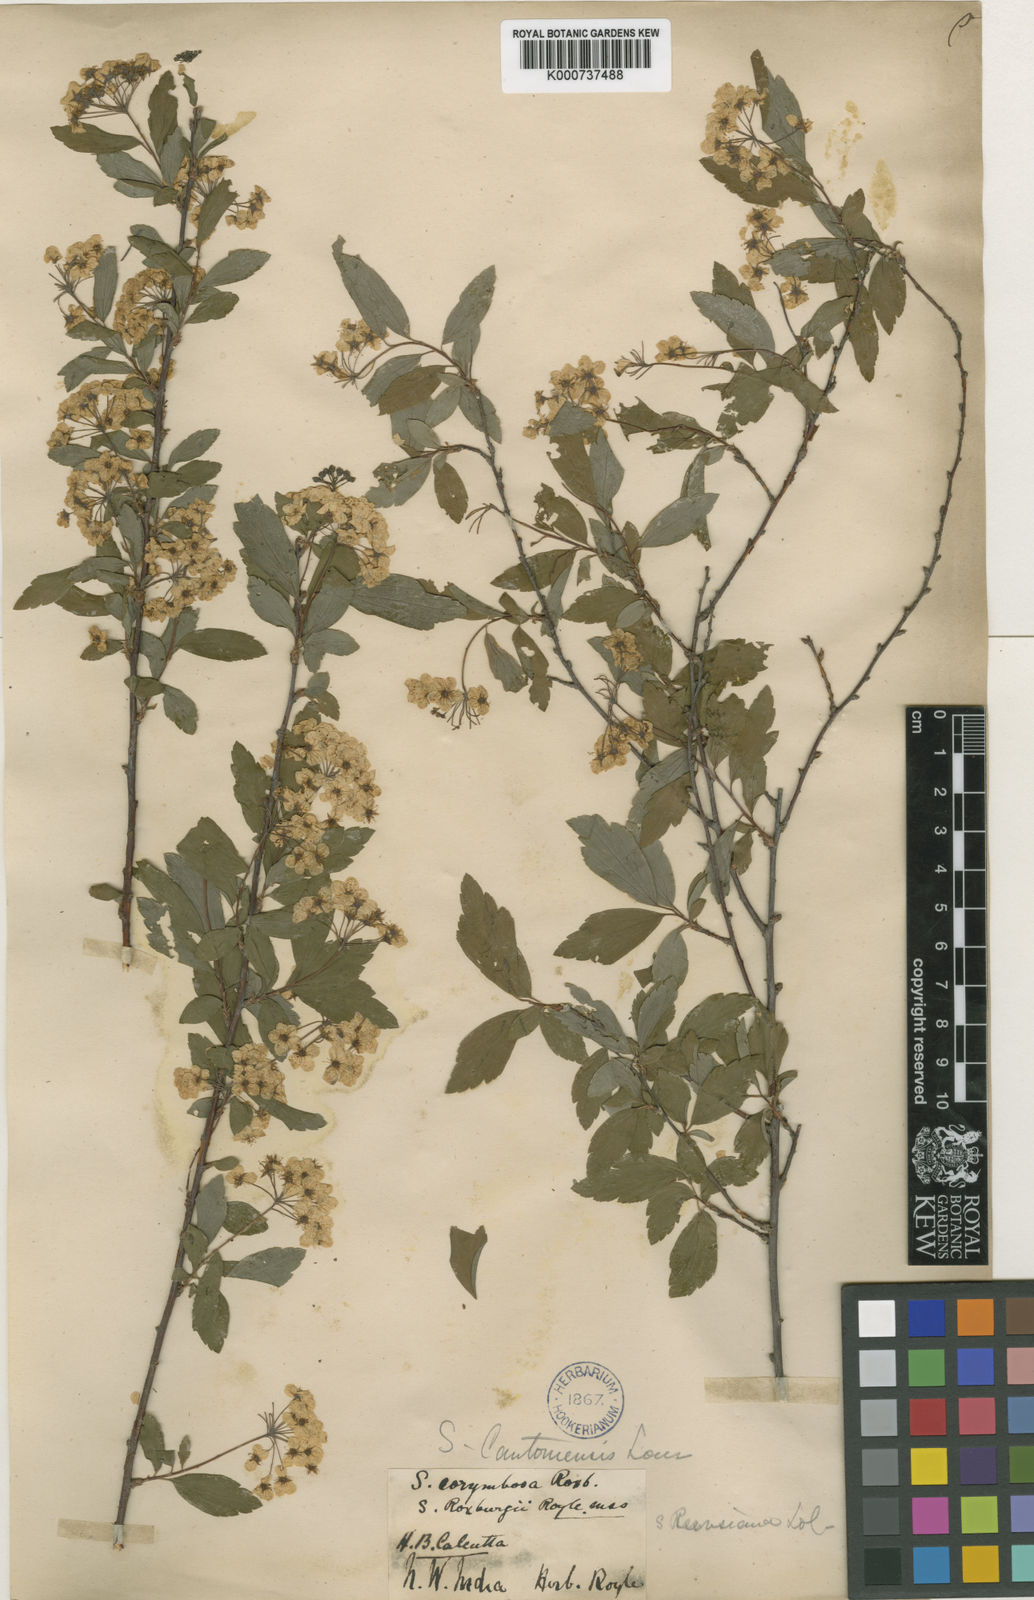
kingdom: Plantae
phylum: Tracheophyta
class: Magnoliopsida
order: Rosales
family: Rosaceae
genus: Spiraea
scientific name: Spiraea
